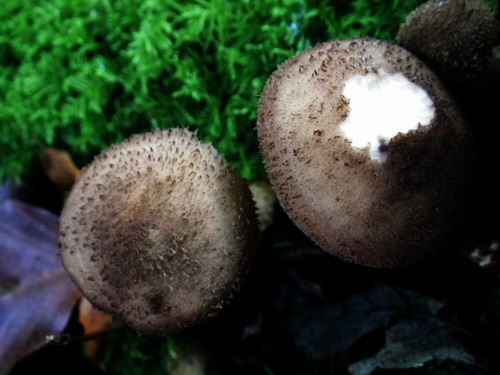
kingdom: Fungi
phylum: Basidiomycota
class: Agaricomycetes
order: Agaricales
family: Physalacriaceae
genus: Armillaria
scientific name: Armillaria ostoyae
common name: mørk honningsvamp
